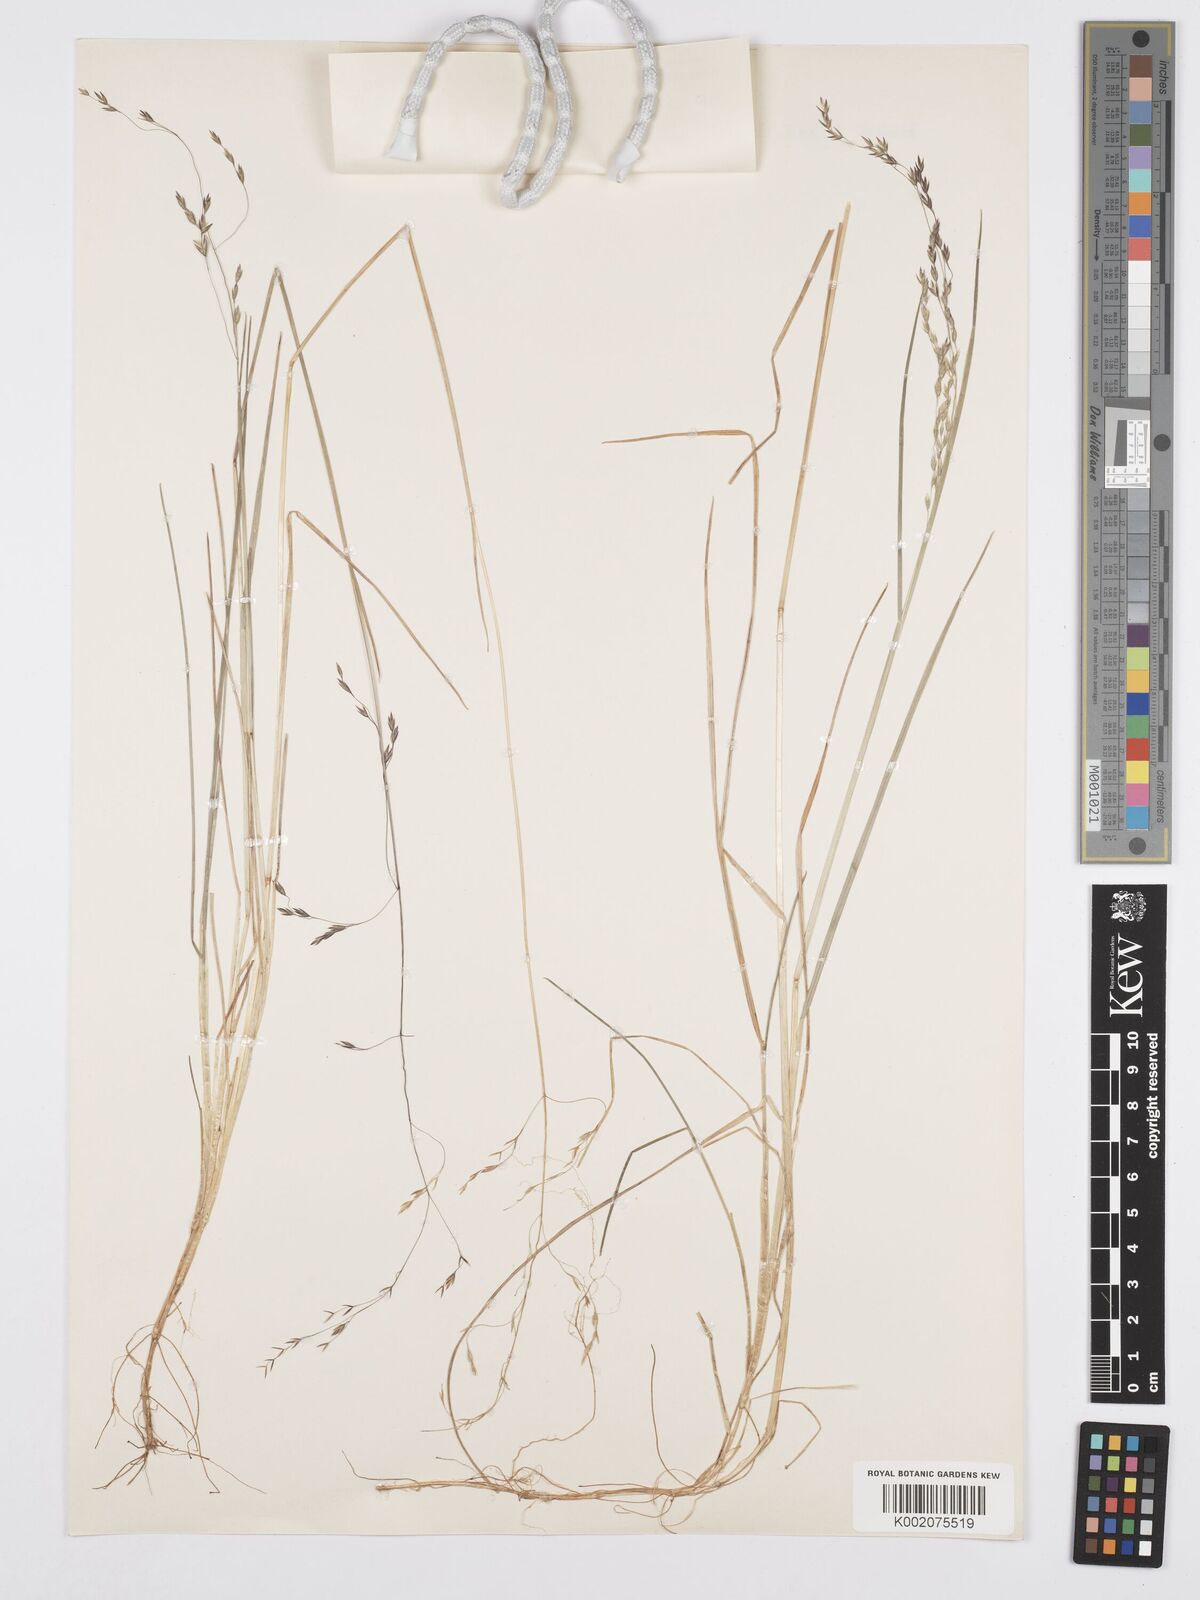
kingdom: Plantae
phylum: Tracheophyta
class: Liliopsida
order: Poales
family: Poaceae
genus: Poa
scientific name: Poa schimperiana
